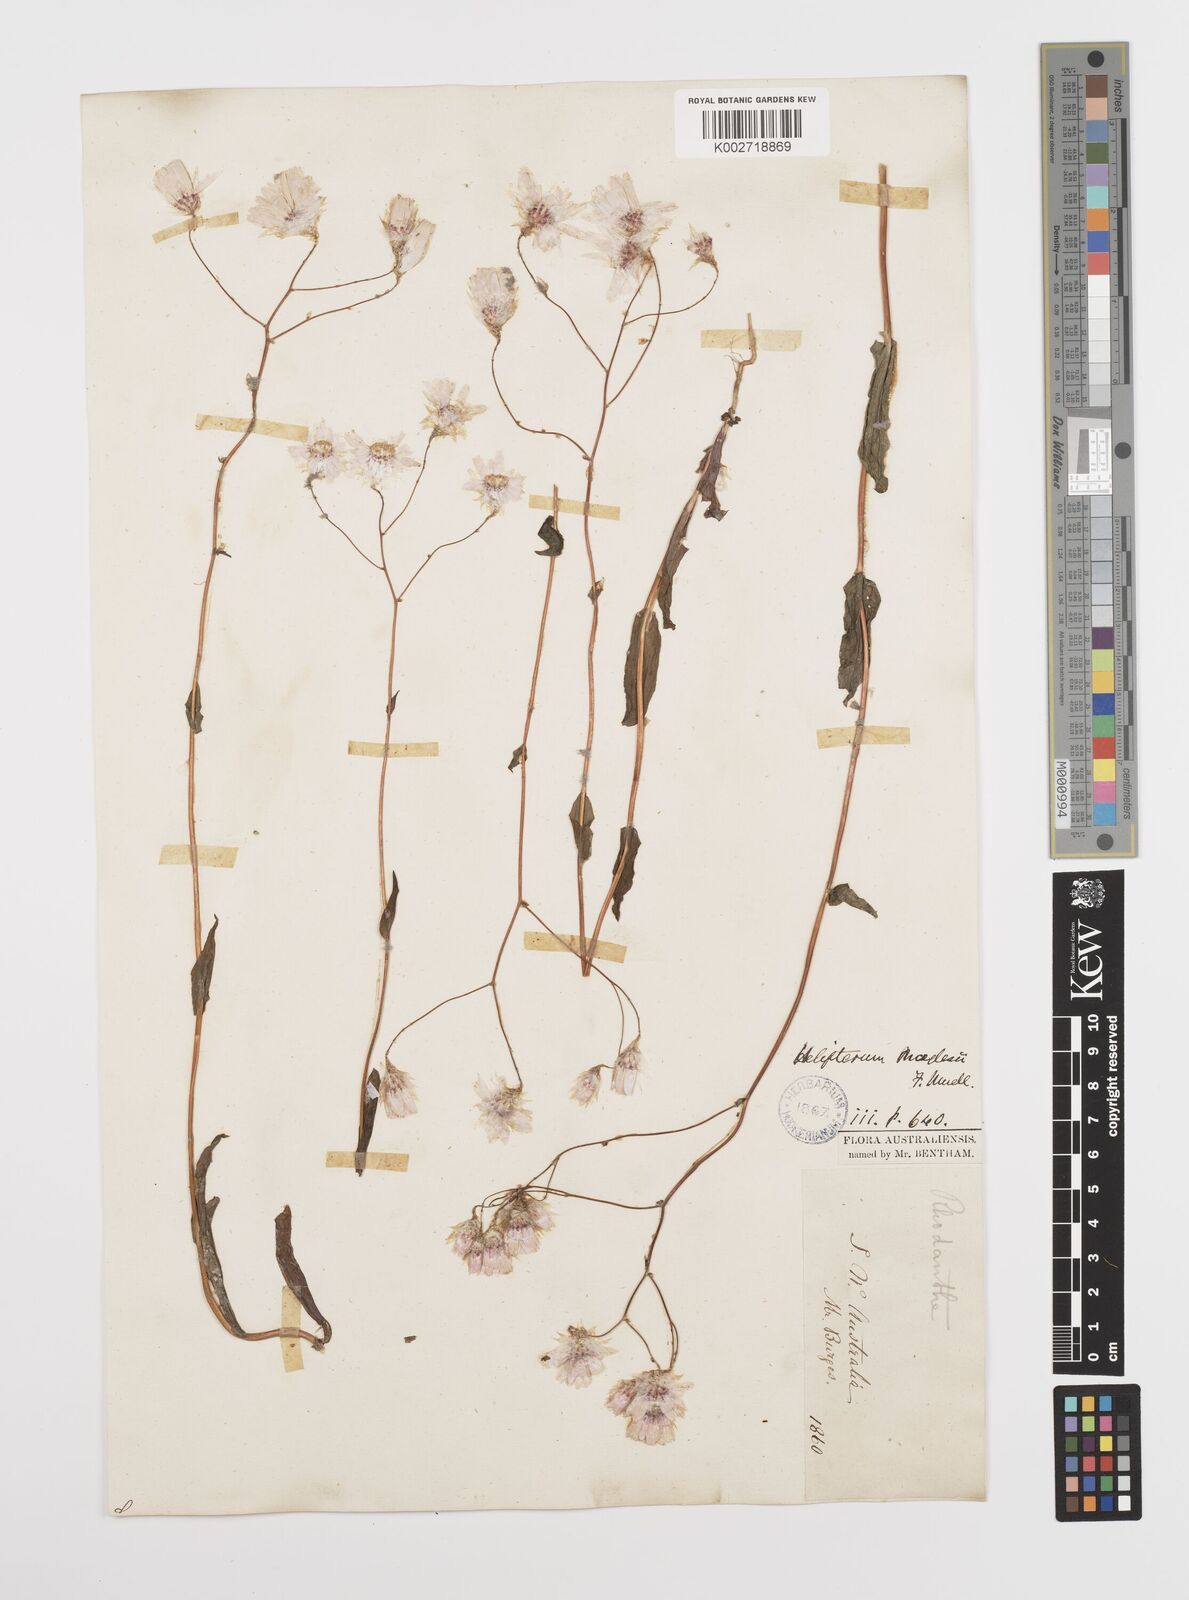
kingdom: Plantae
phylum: Tracheophyta
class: Magnoliopsida
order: Asterales
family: Asteraceae
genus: Rhodanthe
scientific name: Rhodanthe manglesii
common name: Pink sunray
